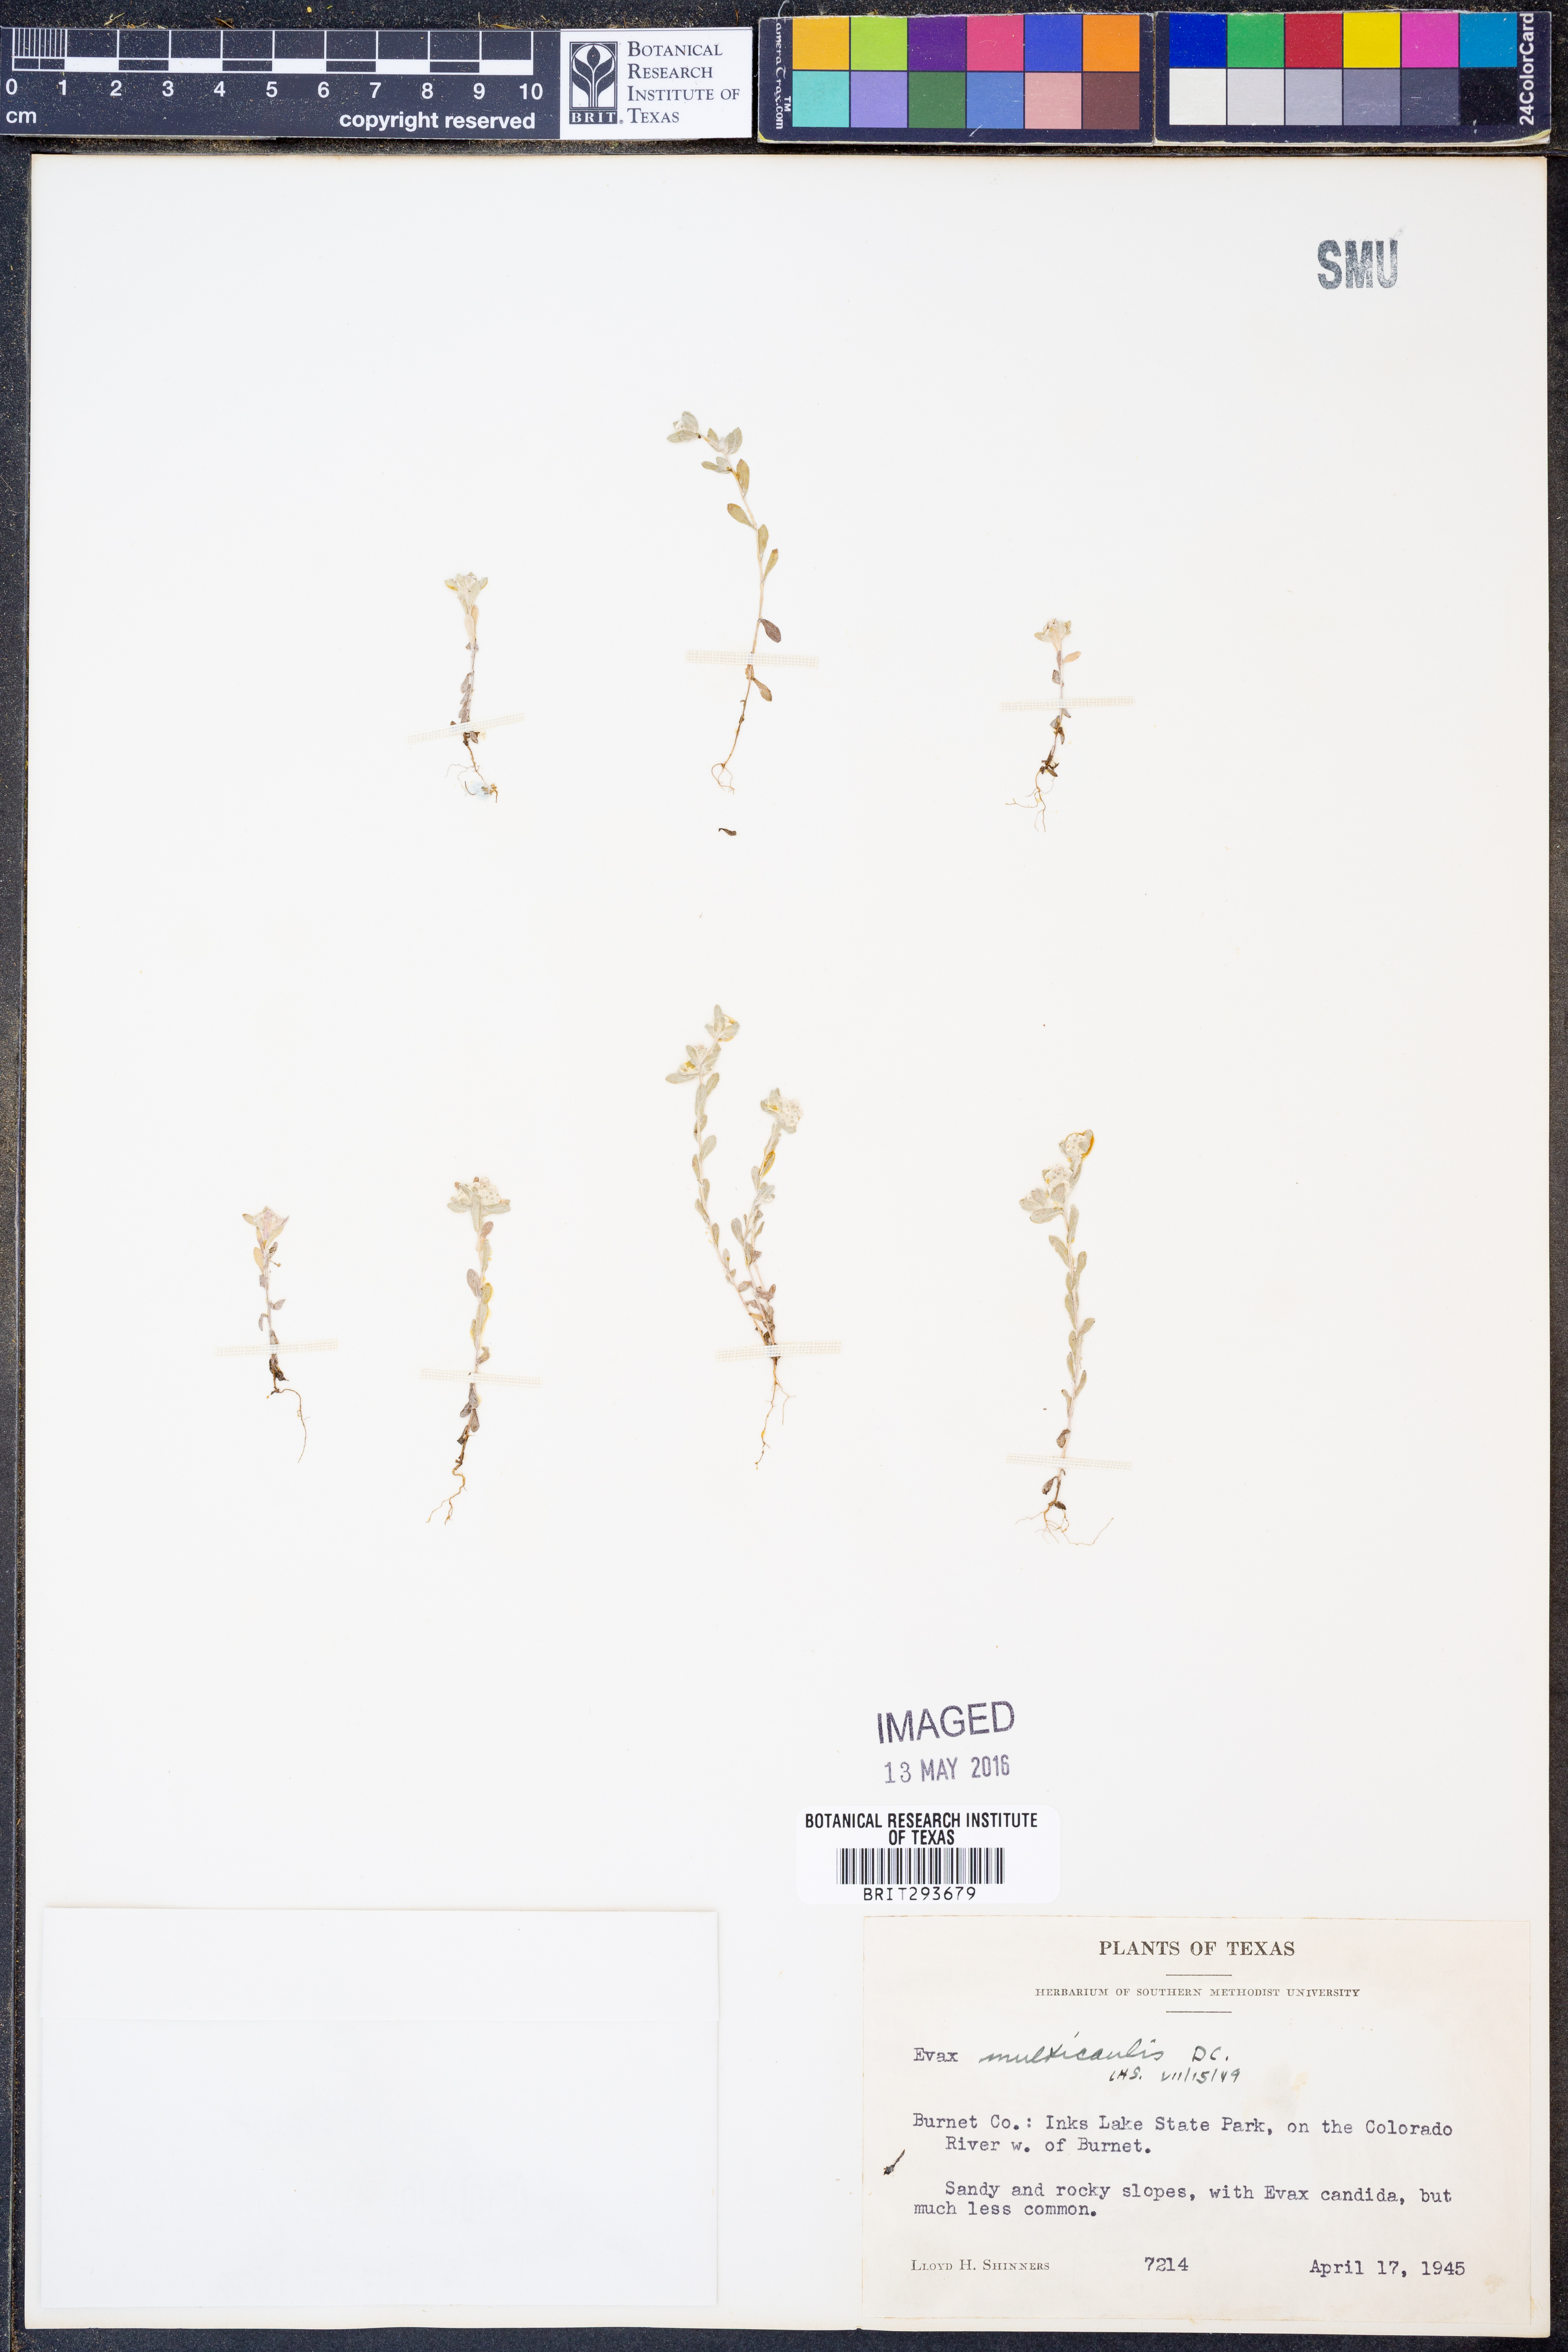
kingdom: Plantae
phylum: Tracheophyta
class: Magnoliopsida
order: Asterales
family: Asteraceae
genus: Diaperia
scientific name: Diaperia verna
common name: Many-stem rabbit-tobacco
